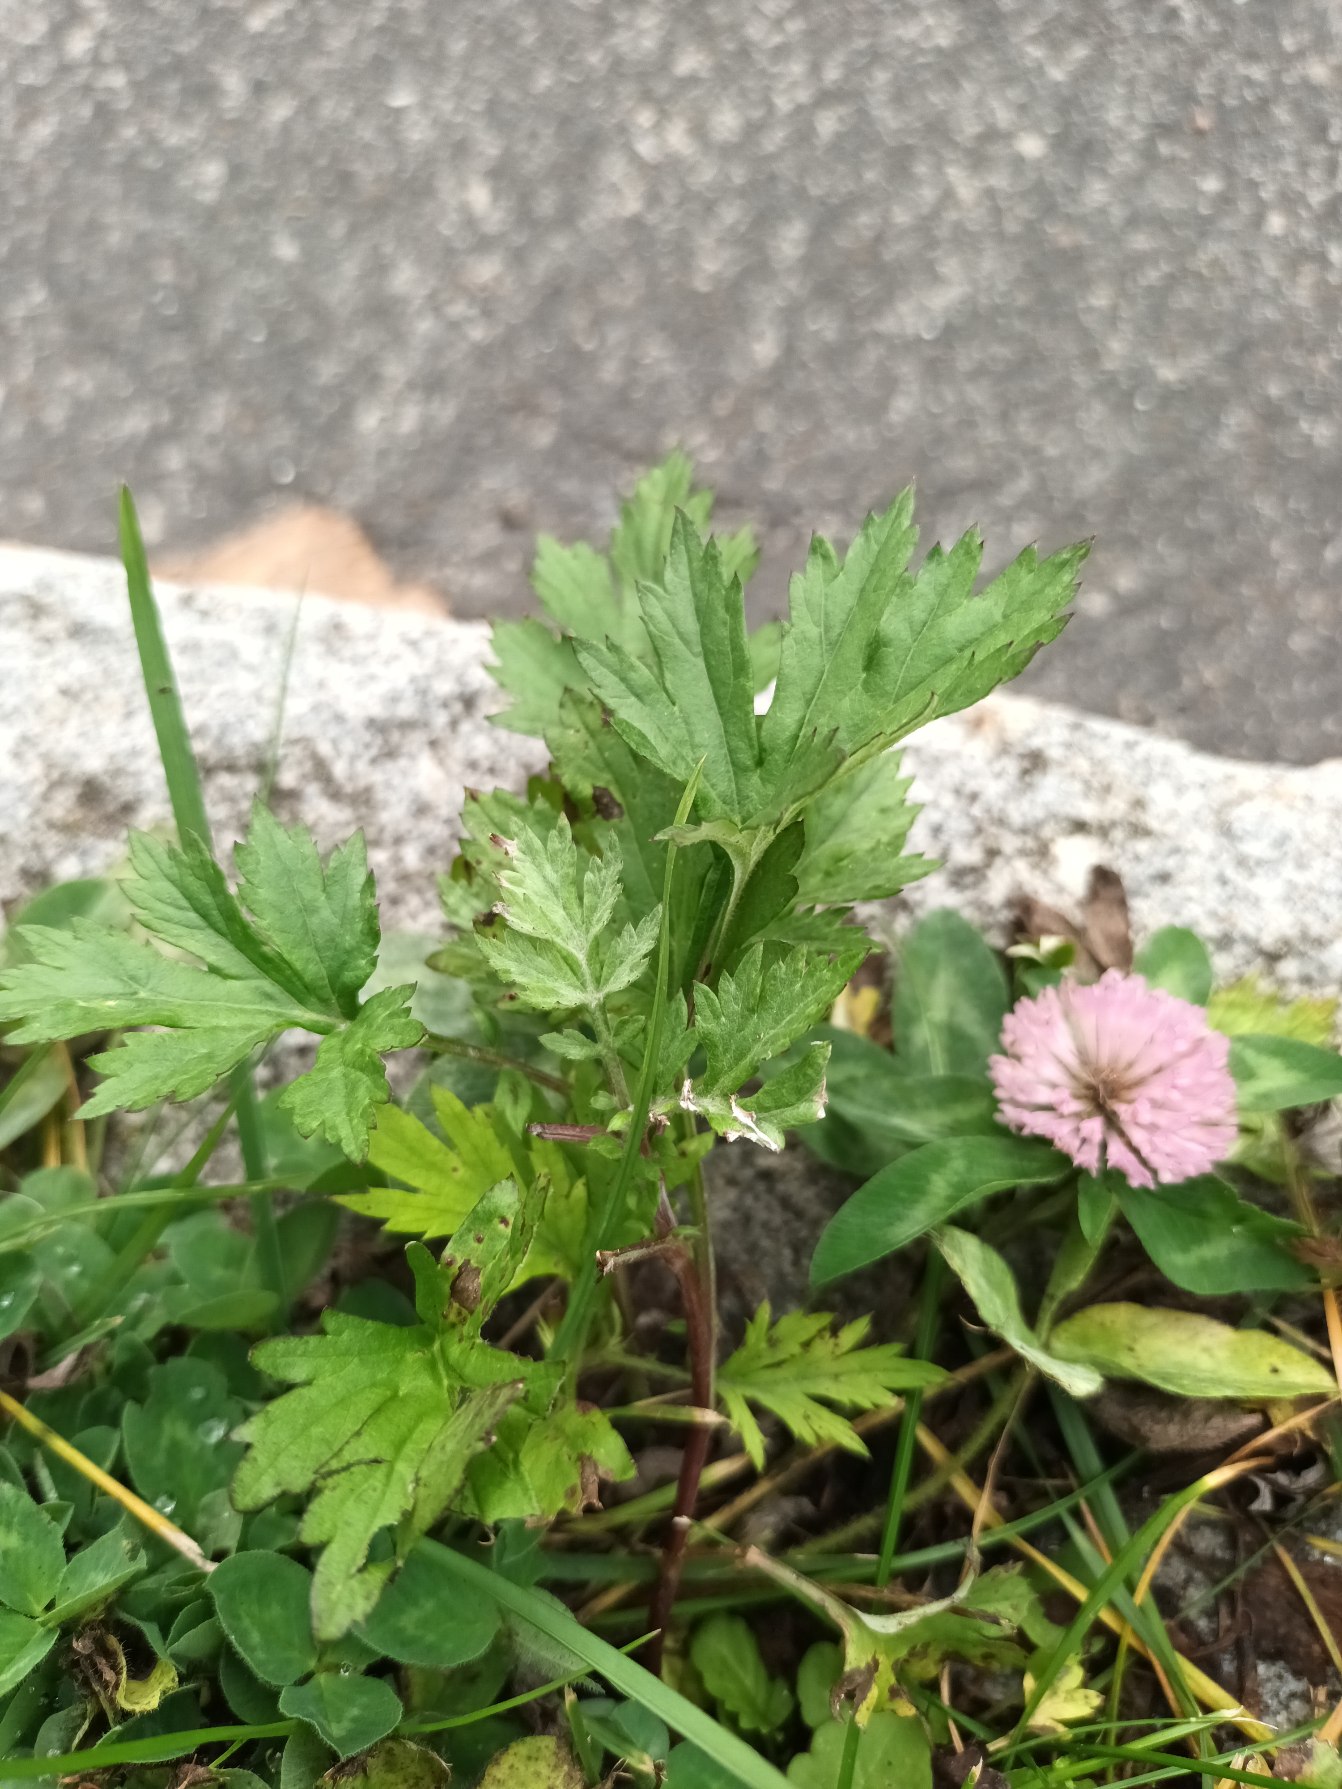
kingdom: Plantae
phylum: Tracheophyta
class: Magnoliopsida
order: Asterales
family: Asteraceae
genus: Artemisia
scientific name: Artemisia vulgaris
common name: Grå-bynke
